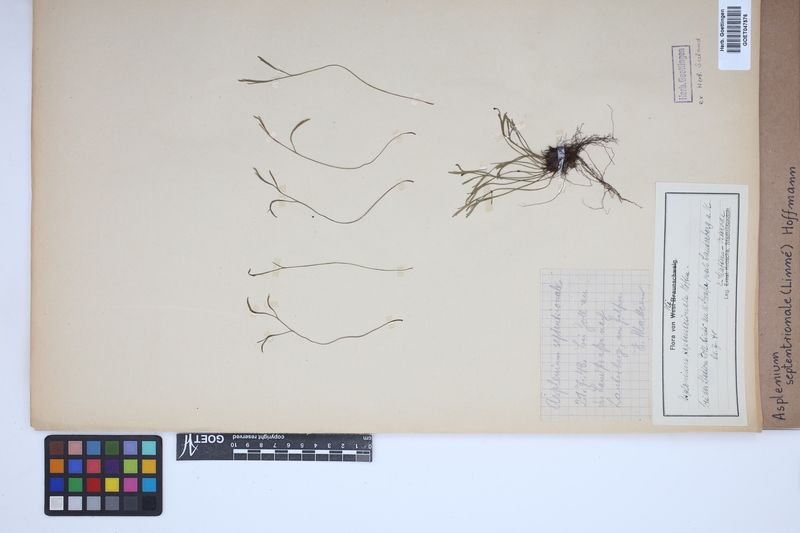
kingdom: Plantae
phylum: Tracheophyta
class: Polypodiopsida
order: Polypodiales
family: Aspleniaceae
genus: Asplenium
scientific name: Asplenium septentrionale
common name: Forked spleenwort
